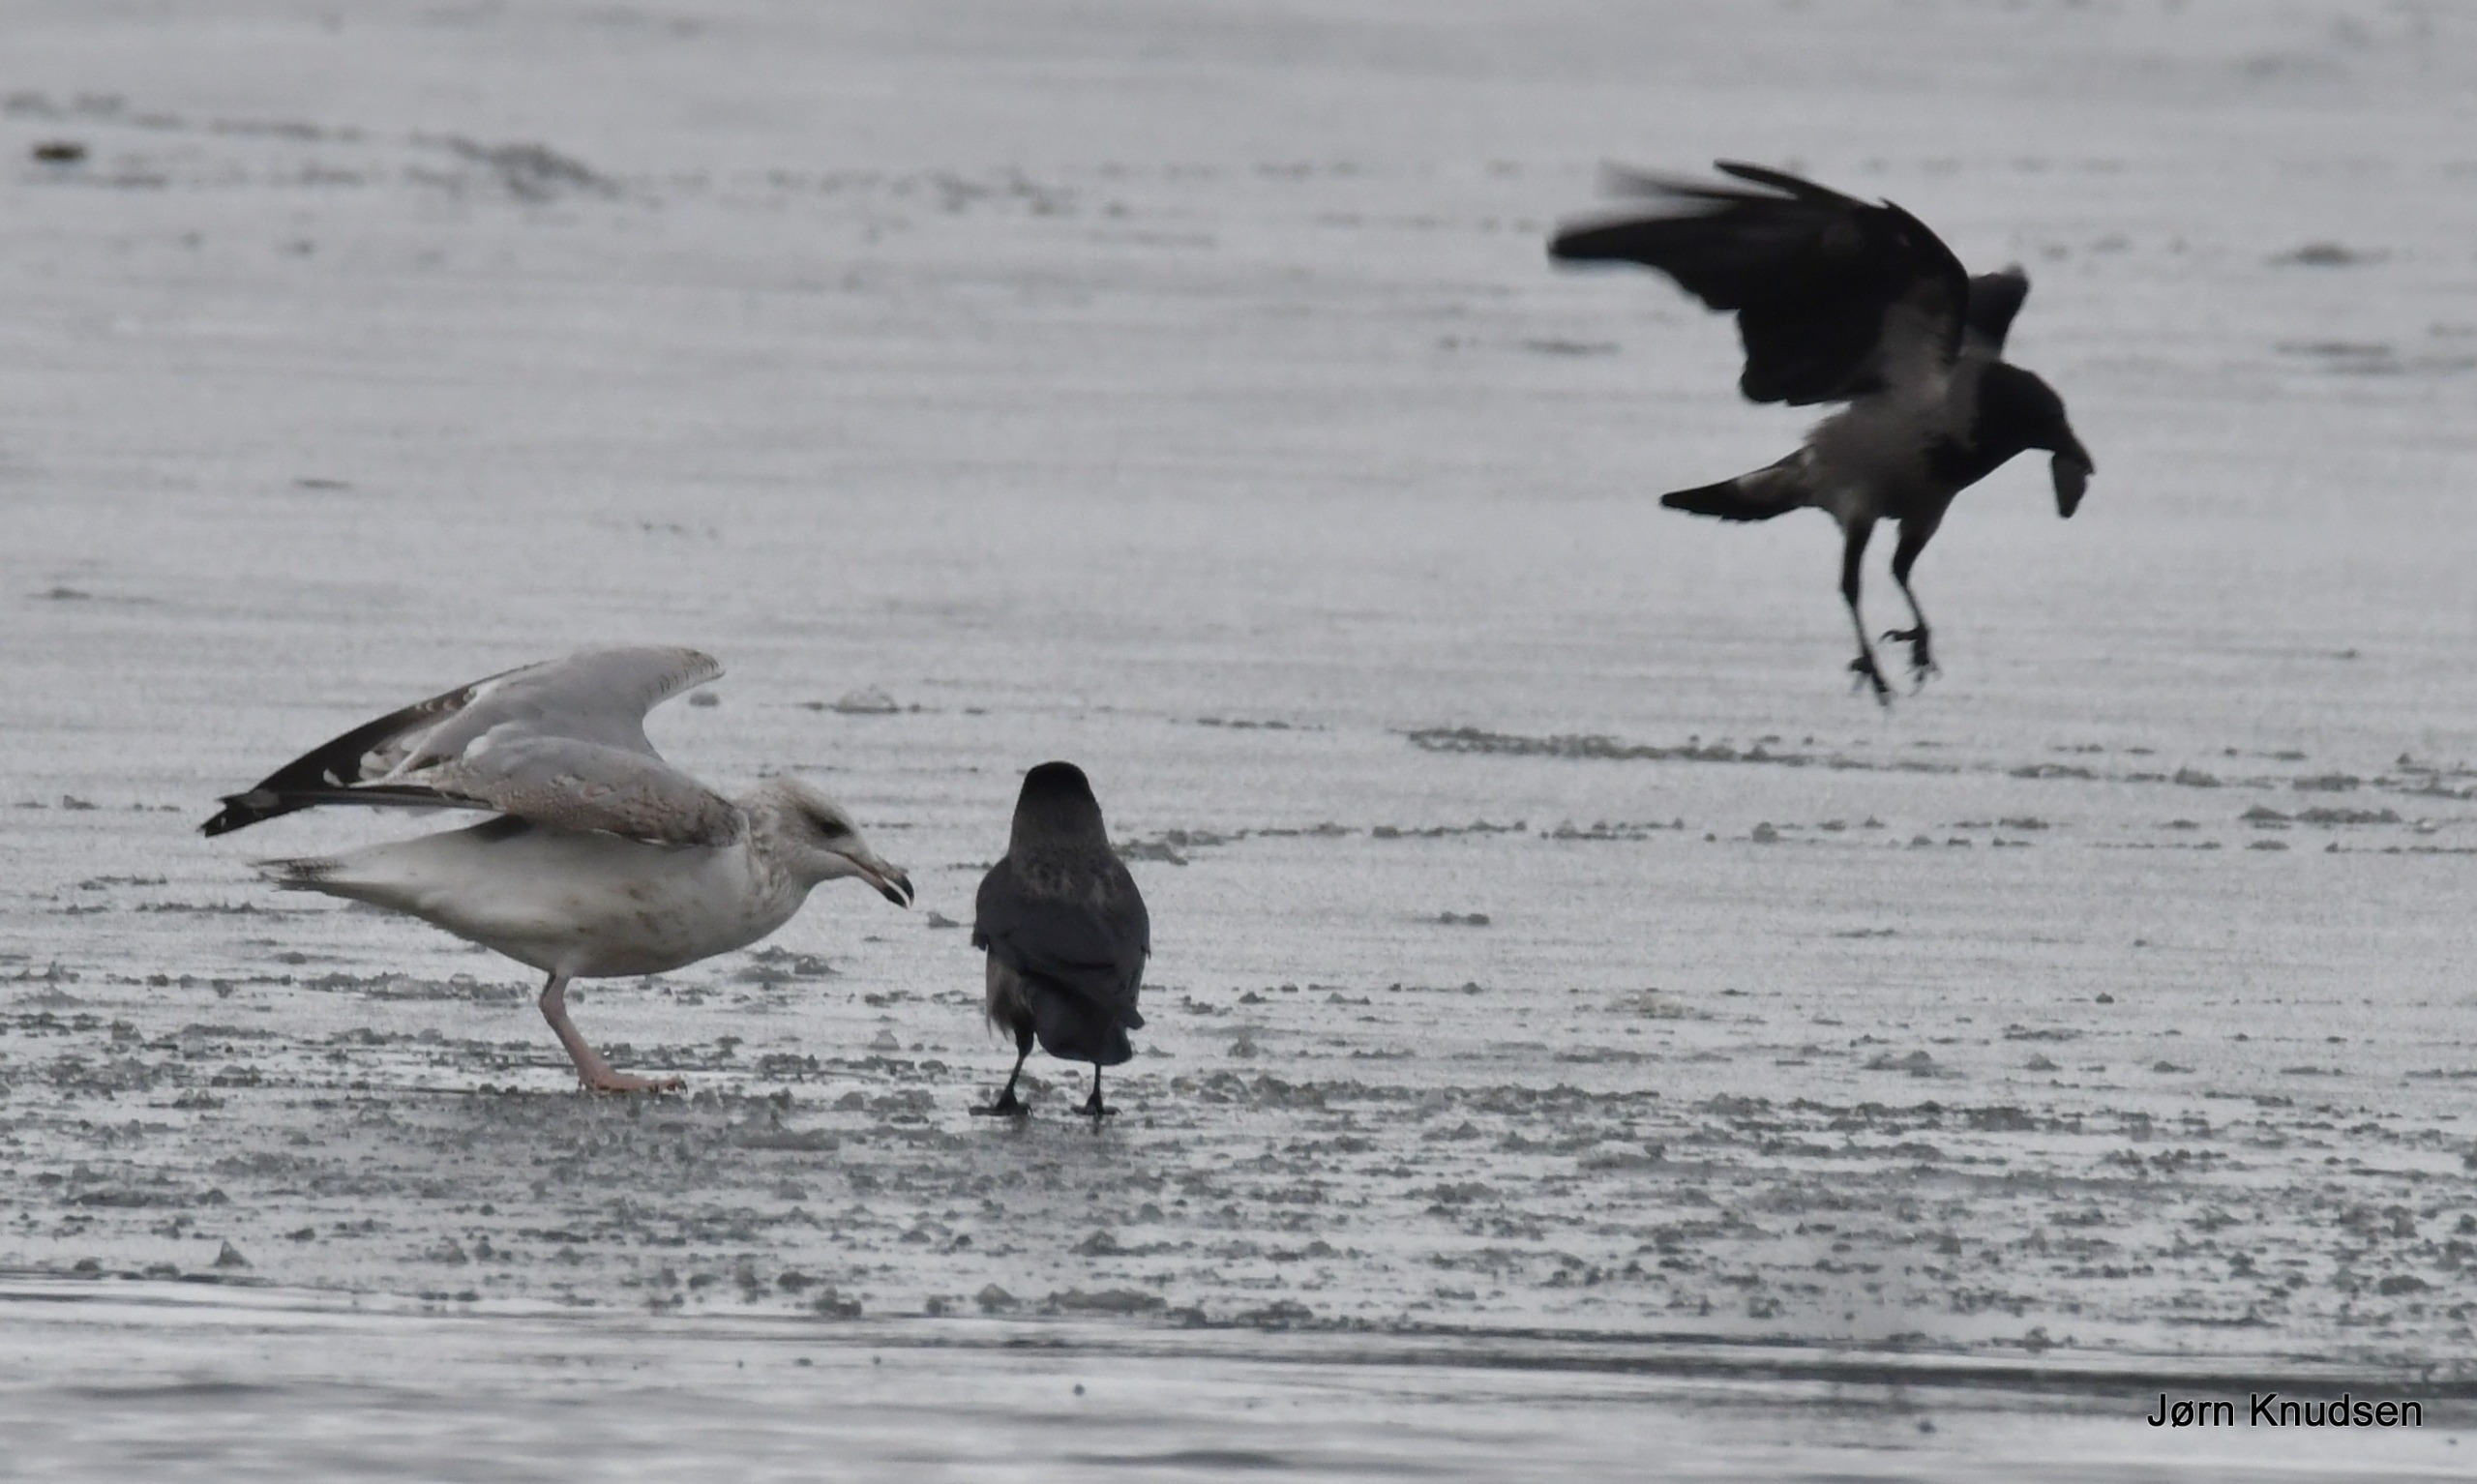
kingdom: Animalia
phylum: Chordata
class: Aves
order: Passeriformes
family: Corvidae
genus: Corvus
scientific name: Corvus cornix
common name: Gråkrage
